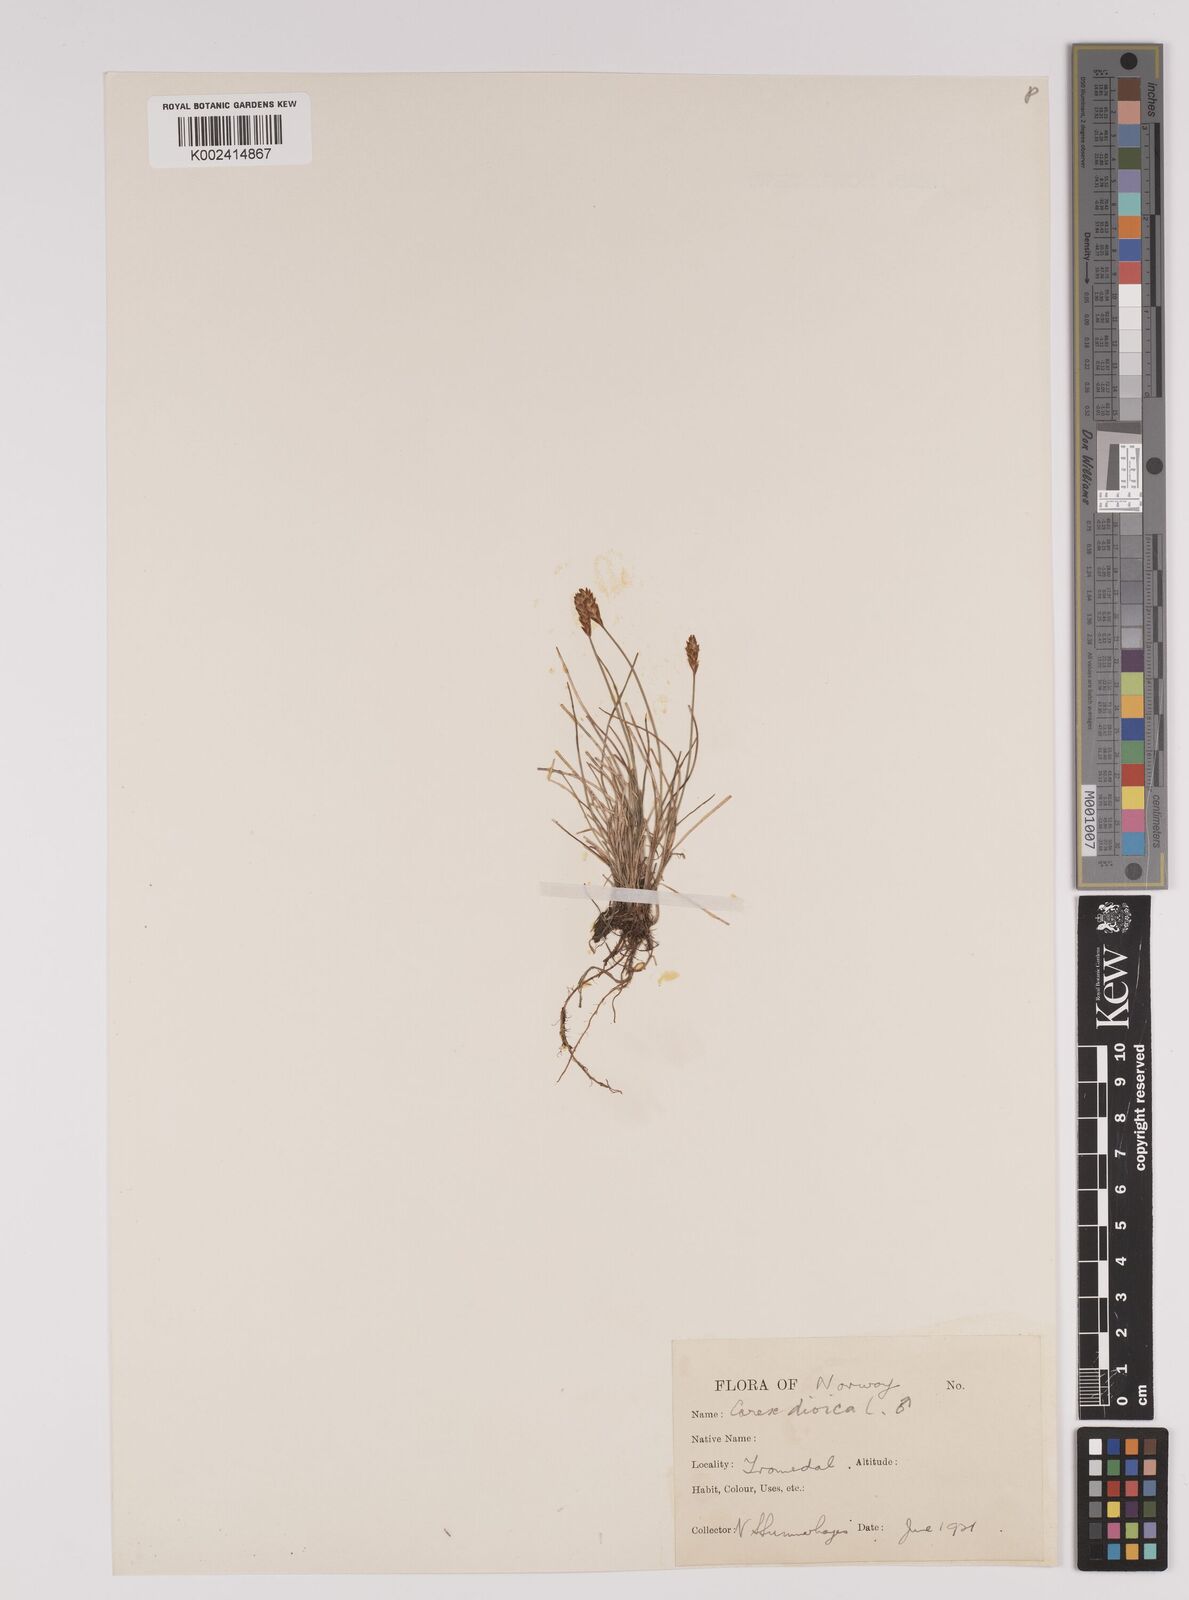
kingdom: Plantae
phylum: Tracheophyta
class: Liliopsida
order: Poales
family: Cyperaceae
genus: Carex
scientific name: Carex dioica
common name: Dioecious sedge
